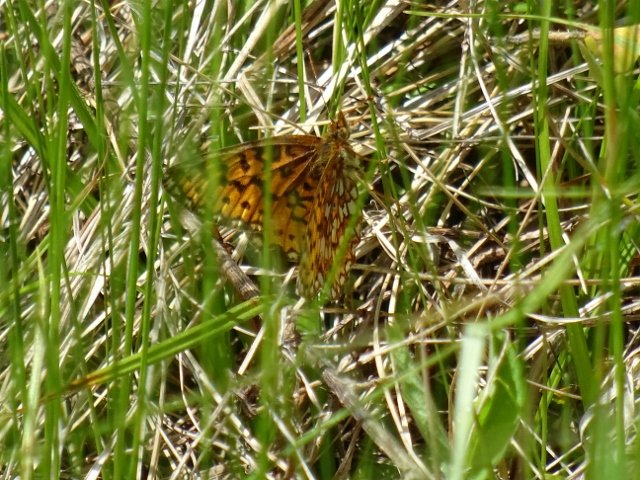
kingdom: Animalia
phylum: Arthropoda
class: Insecta
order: Lepidoptera
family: Nymphalidae
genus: Boloria
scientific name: Boloria selene
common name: Silver-bordered Fritillary
